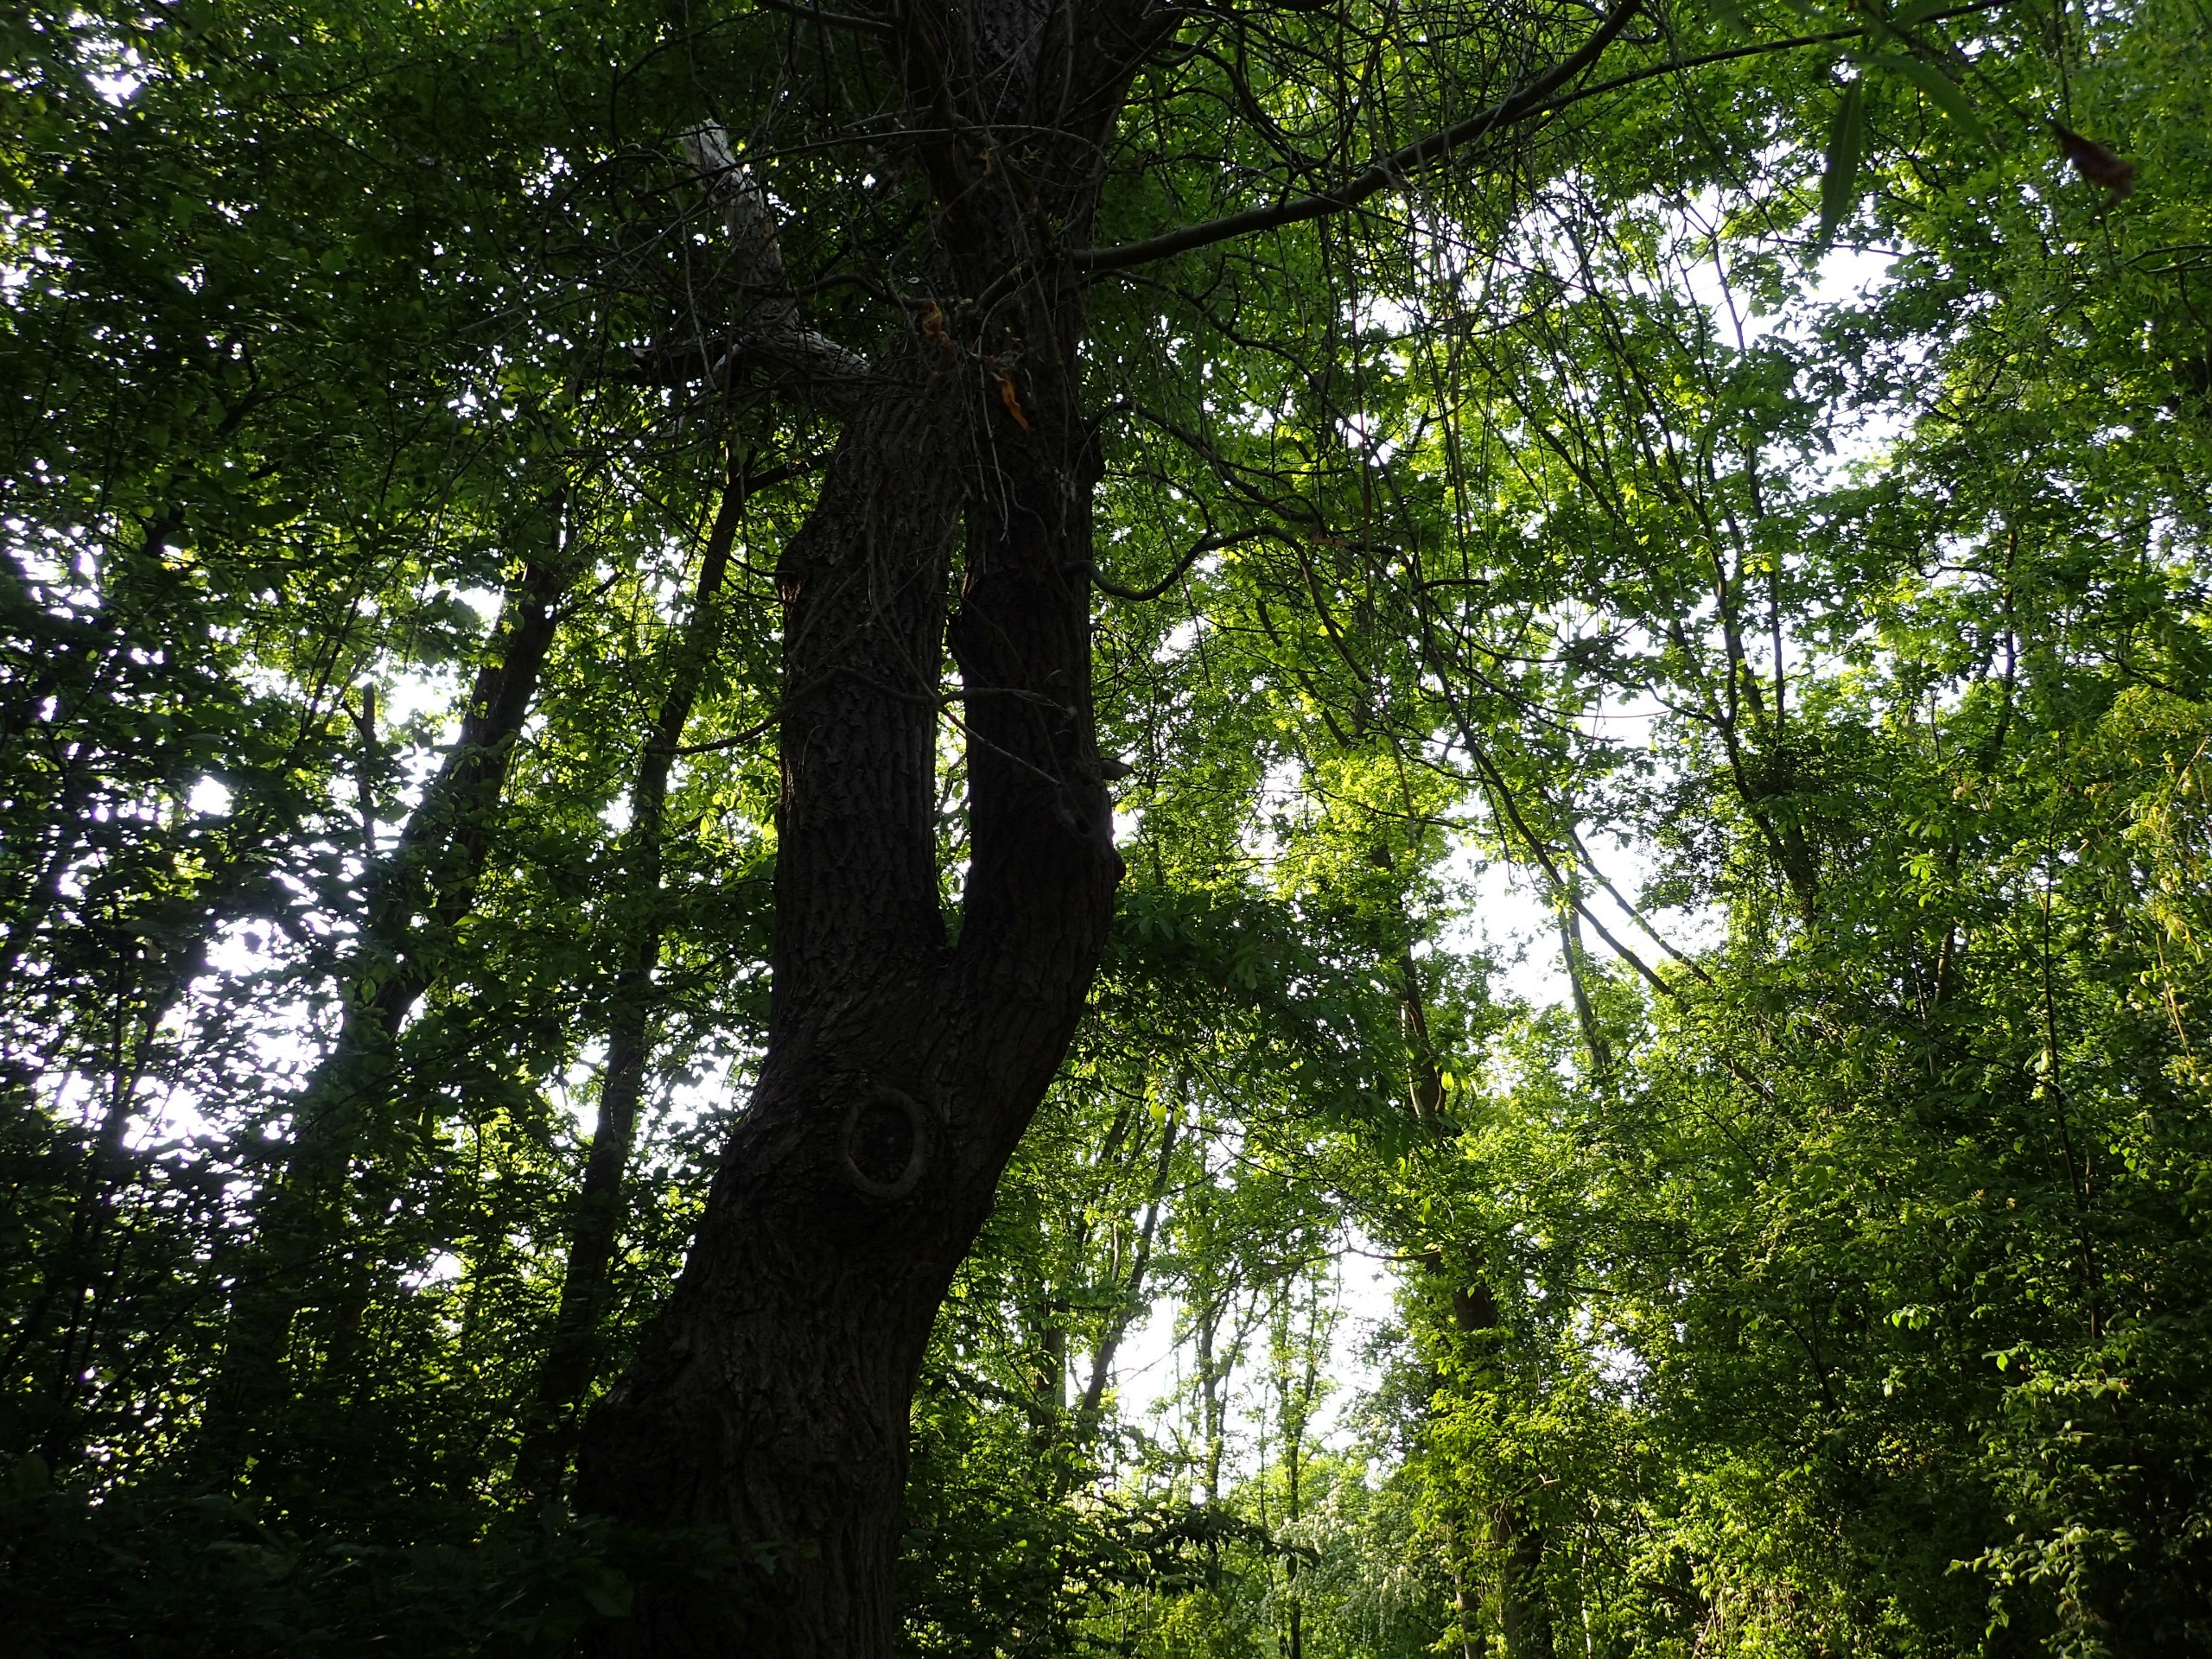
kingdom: Animalia
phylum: Chordata
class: Aves
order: Passeriformes
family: Sittidae
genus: Sitta
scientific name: Sitta europaea
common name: Spætmejse
